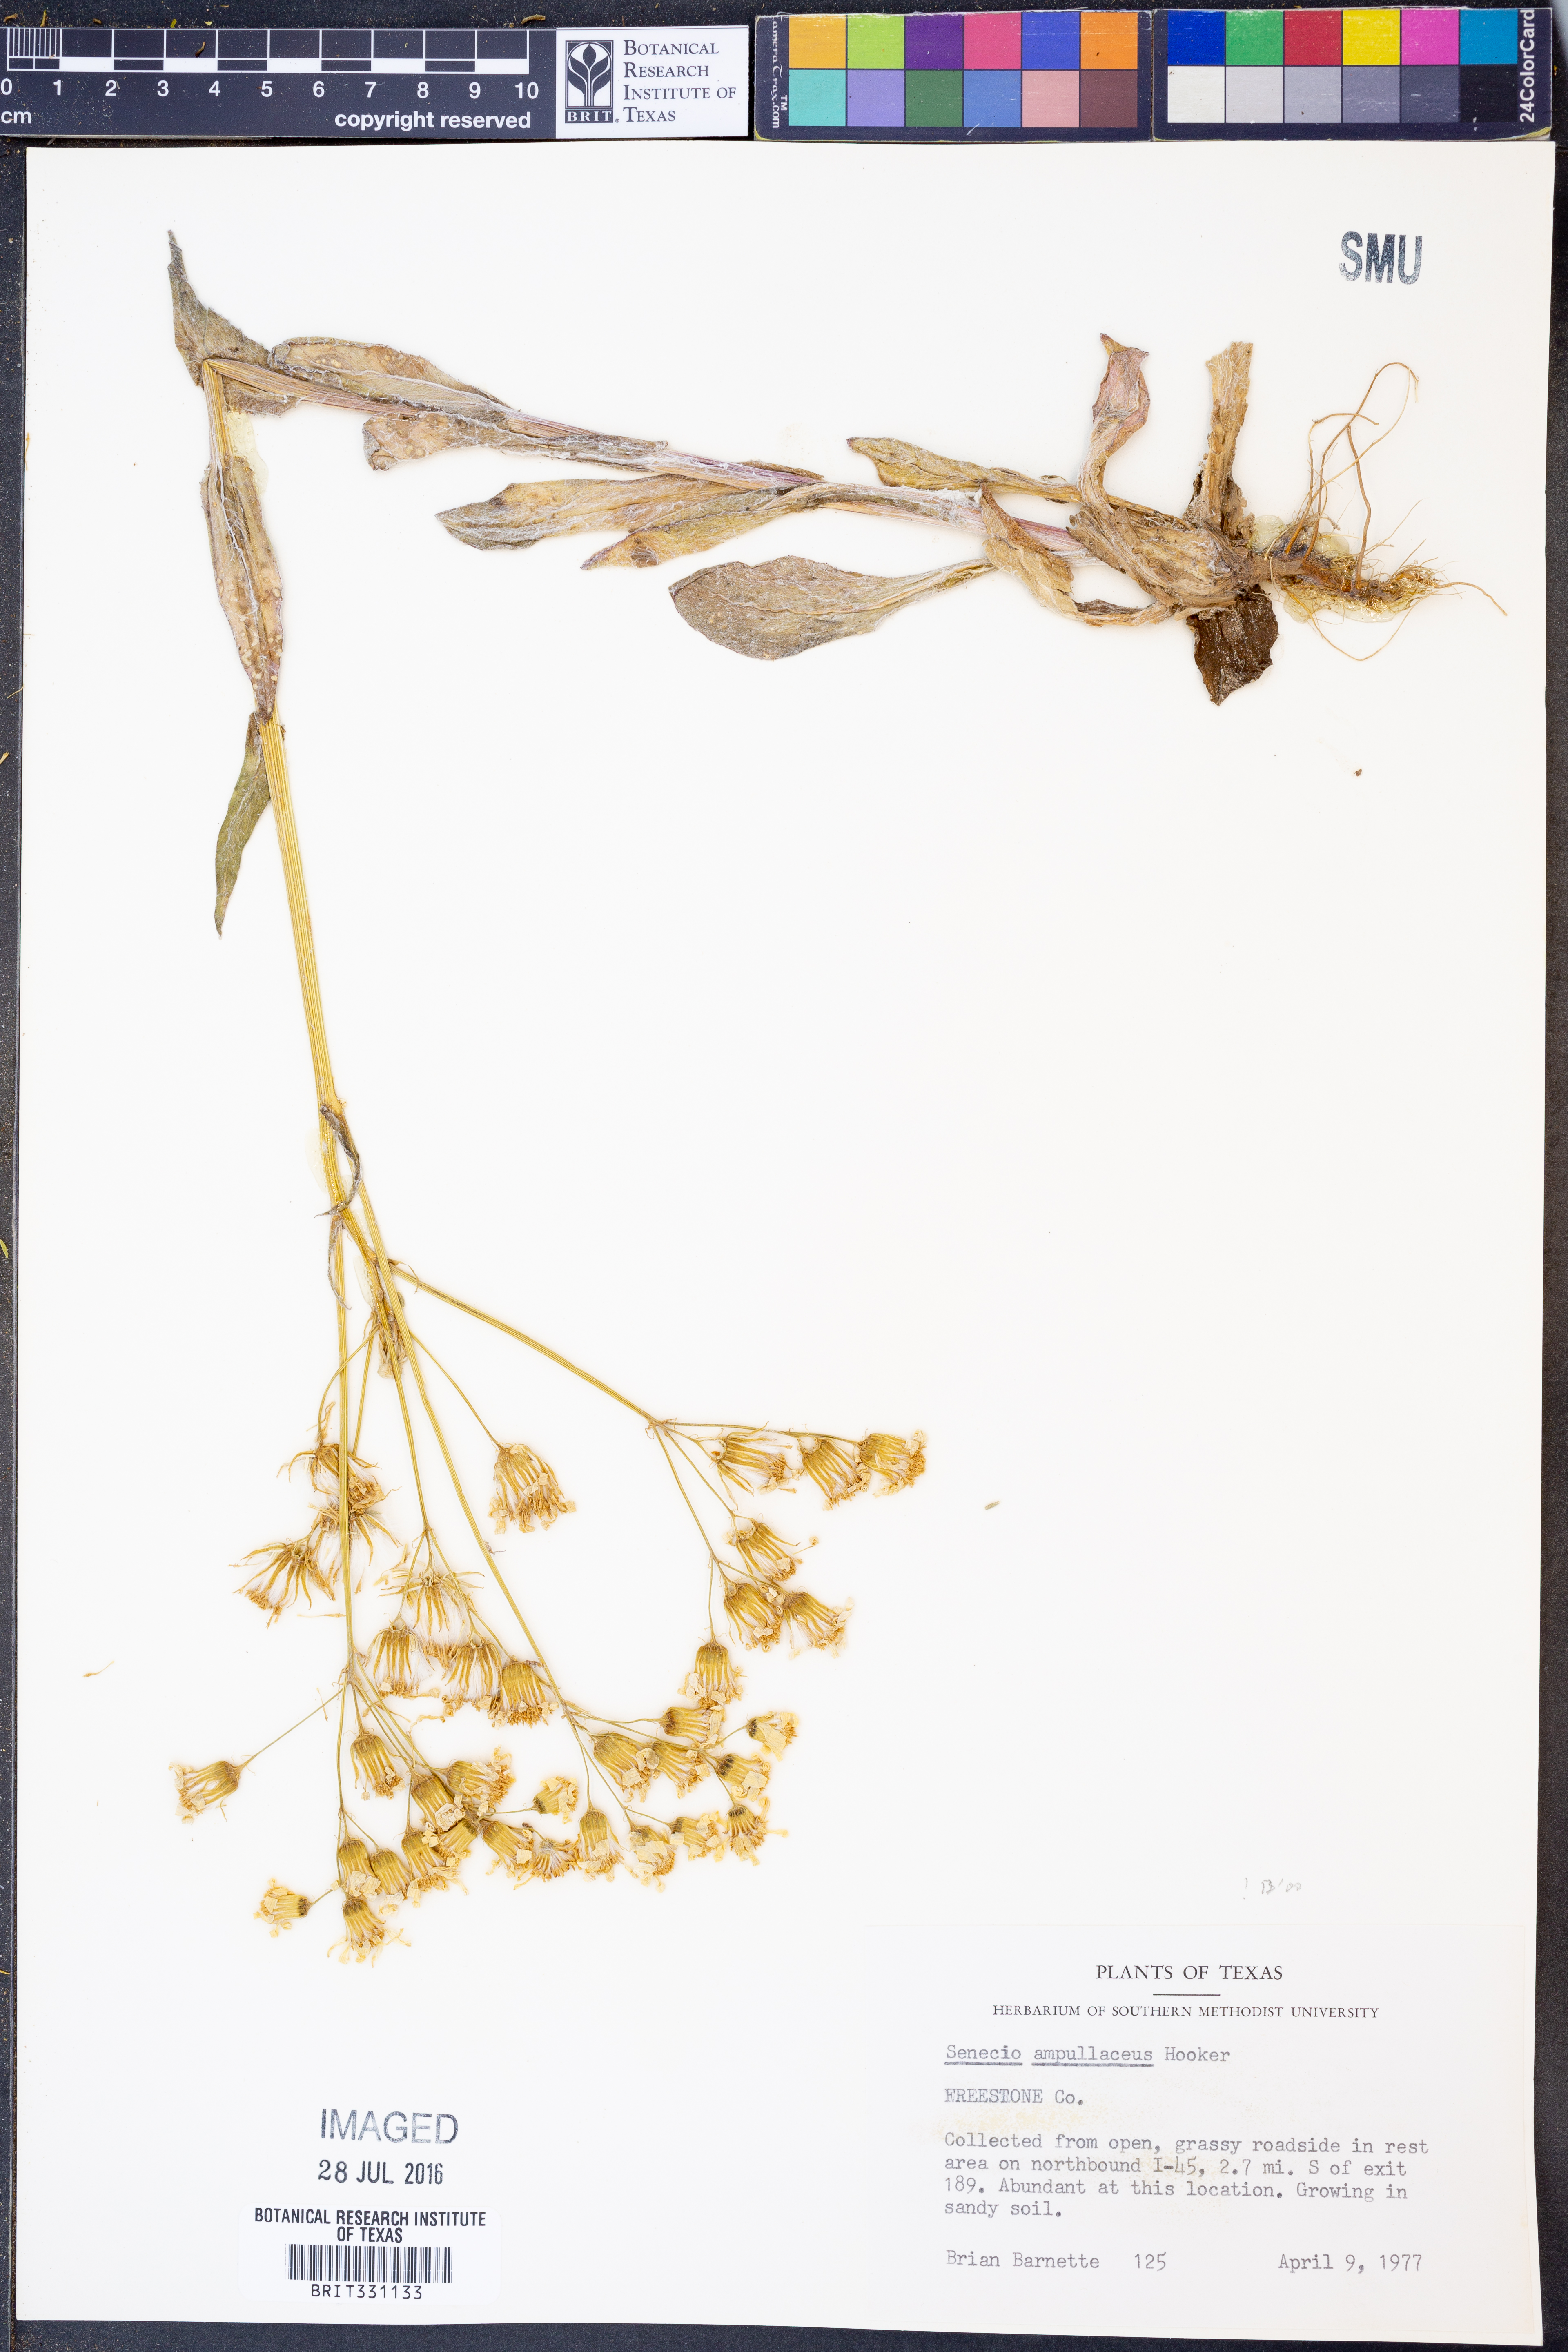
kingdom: Plantae
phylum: Tracheophyta
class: Magnoliopsida
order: Asterales
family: Asteraceae
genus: Senecio
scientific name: Senecio ampullaceus
